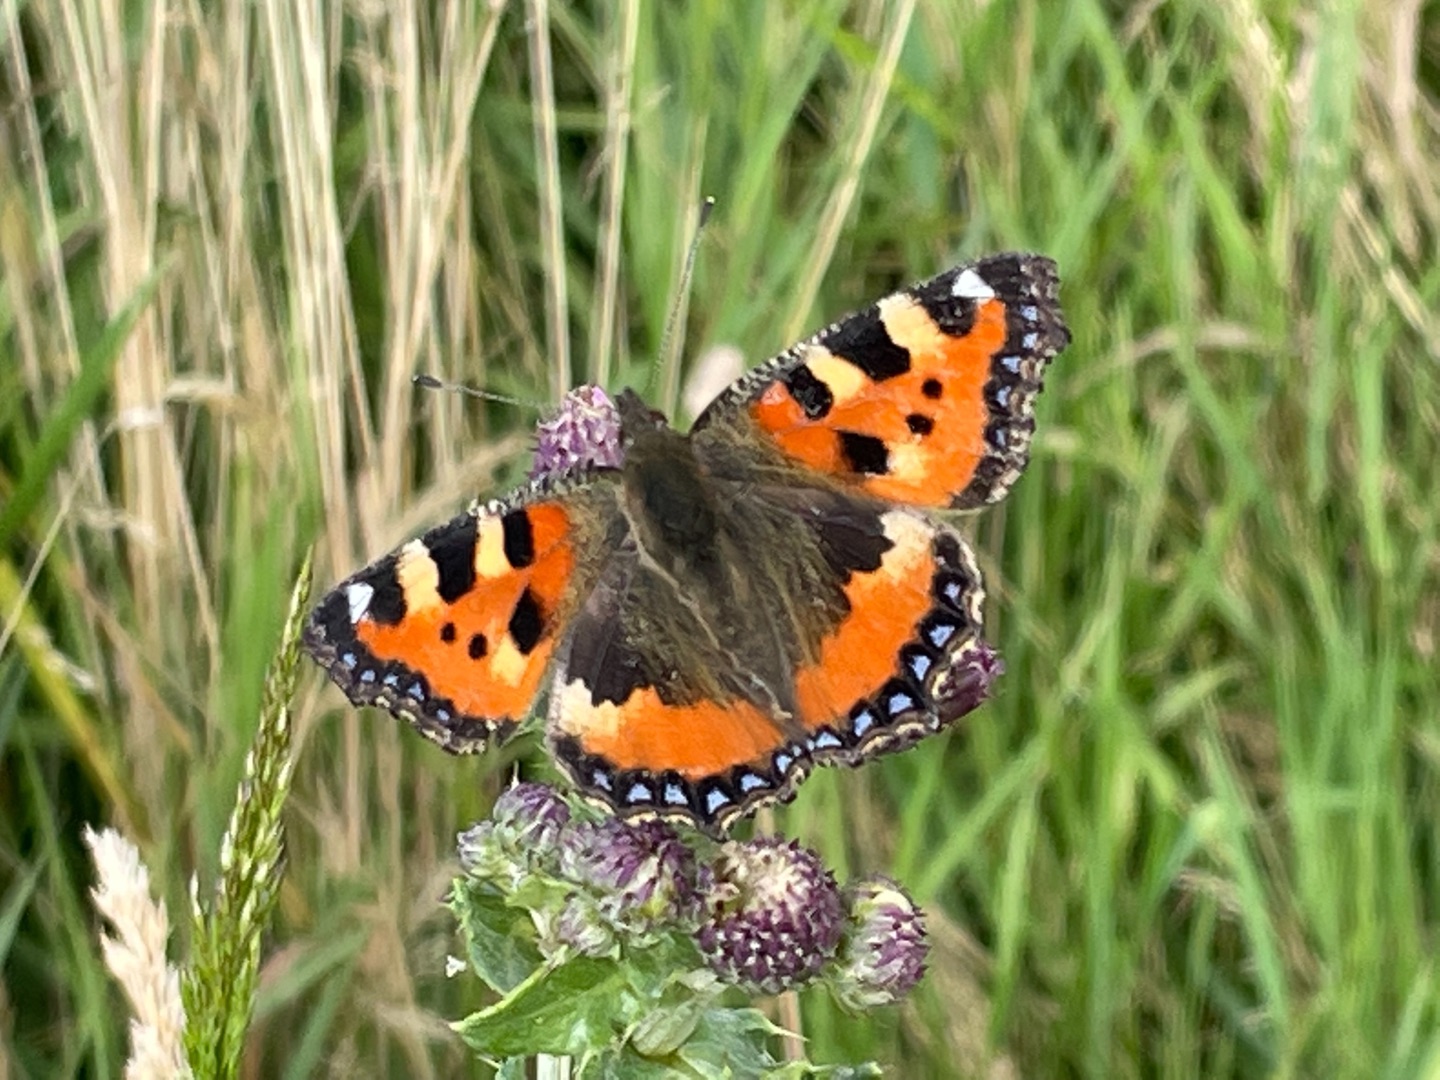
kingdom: Animalia
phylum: Arthropoda
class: Insecta
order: Lepidoptera
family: Nymphalidae
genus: Aglais
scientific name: Aglais urticae
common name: Nældens takvinge
